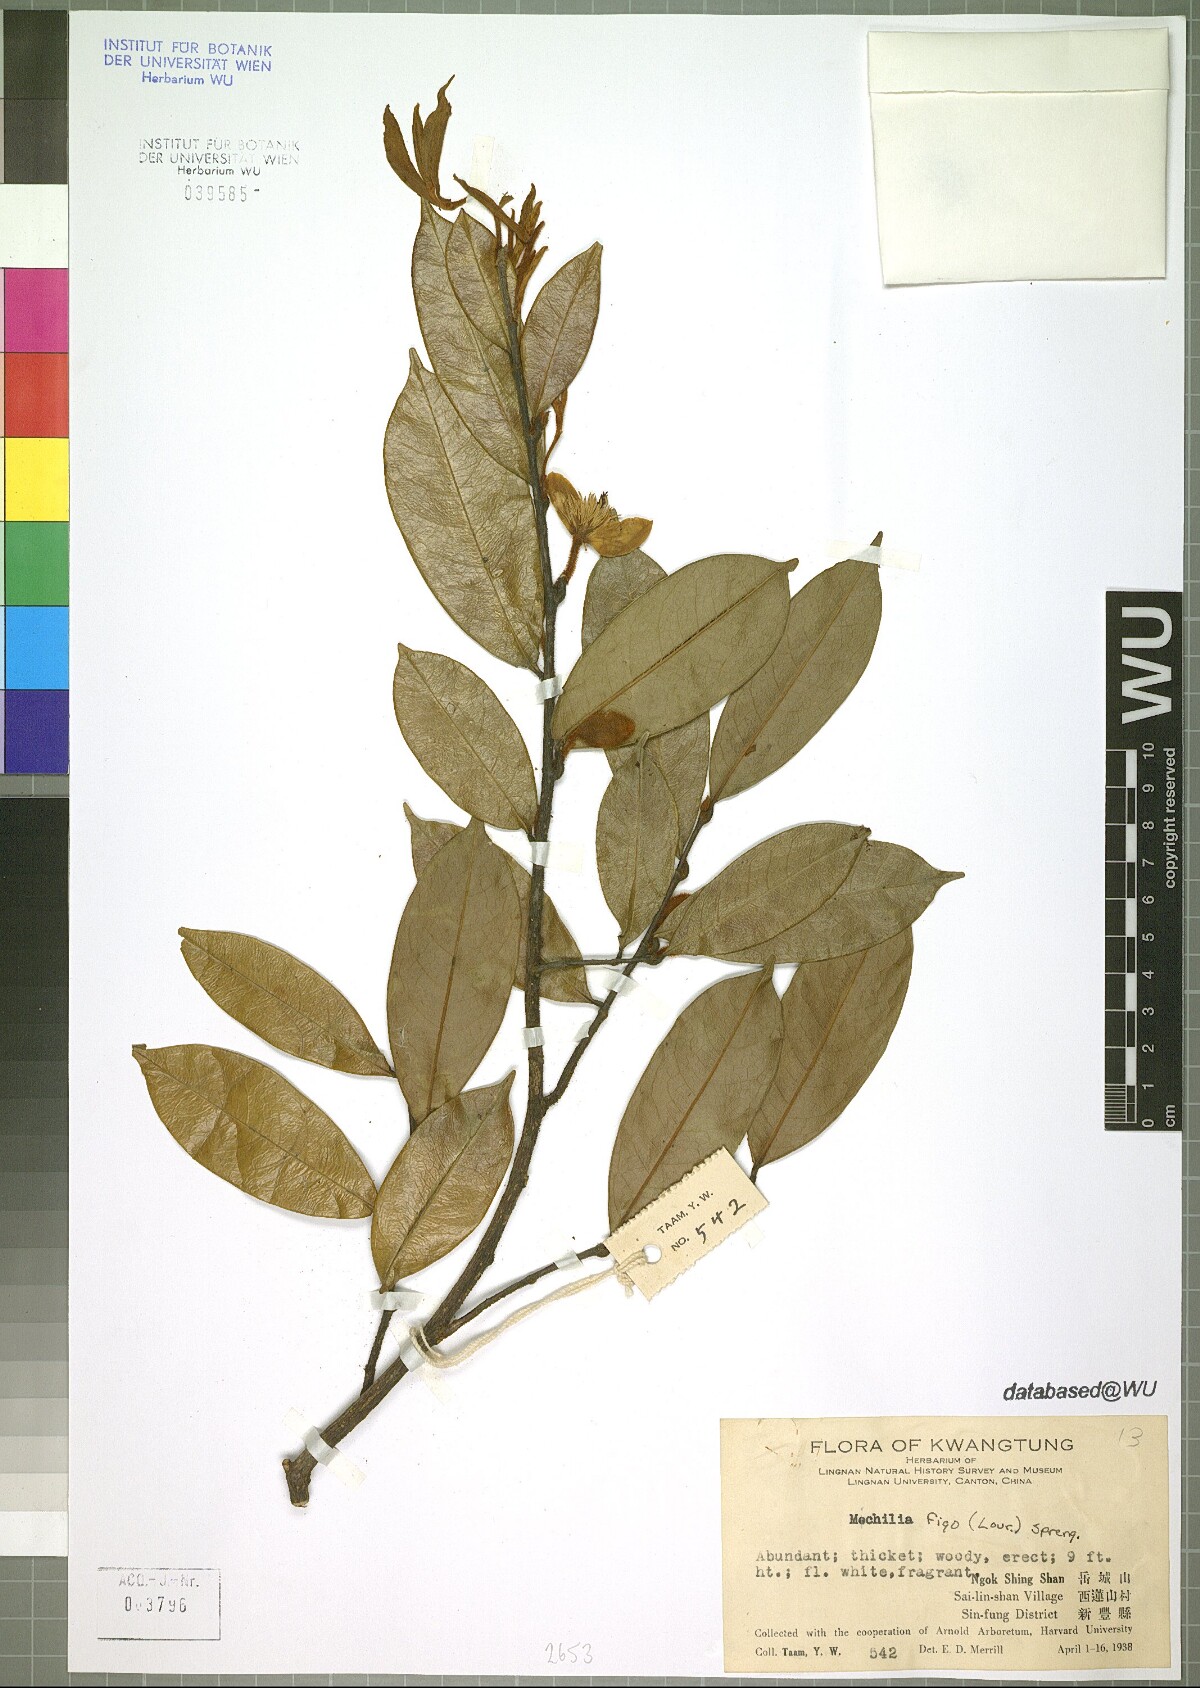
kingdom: Plantae
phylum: Tracheophyta
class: Magnoliopsida
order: Magnoliales
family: Magnoliaceae
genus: Magnolia
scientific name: Magnolia figo
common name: Banana shrub
